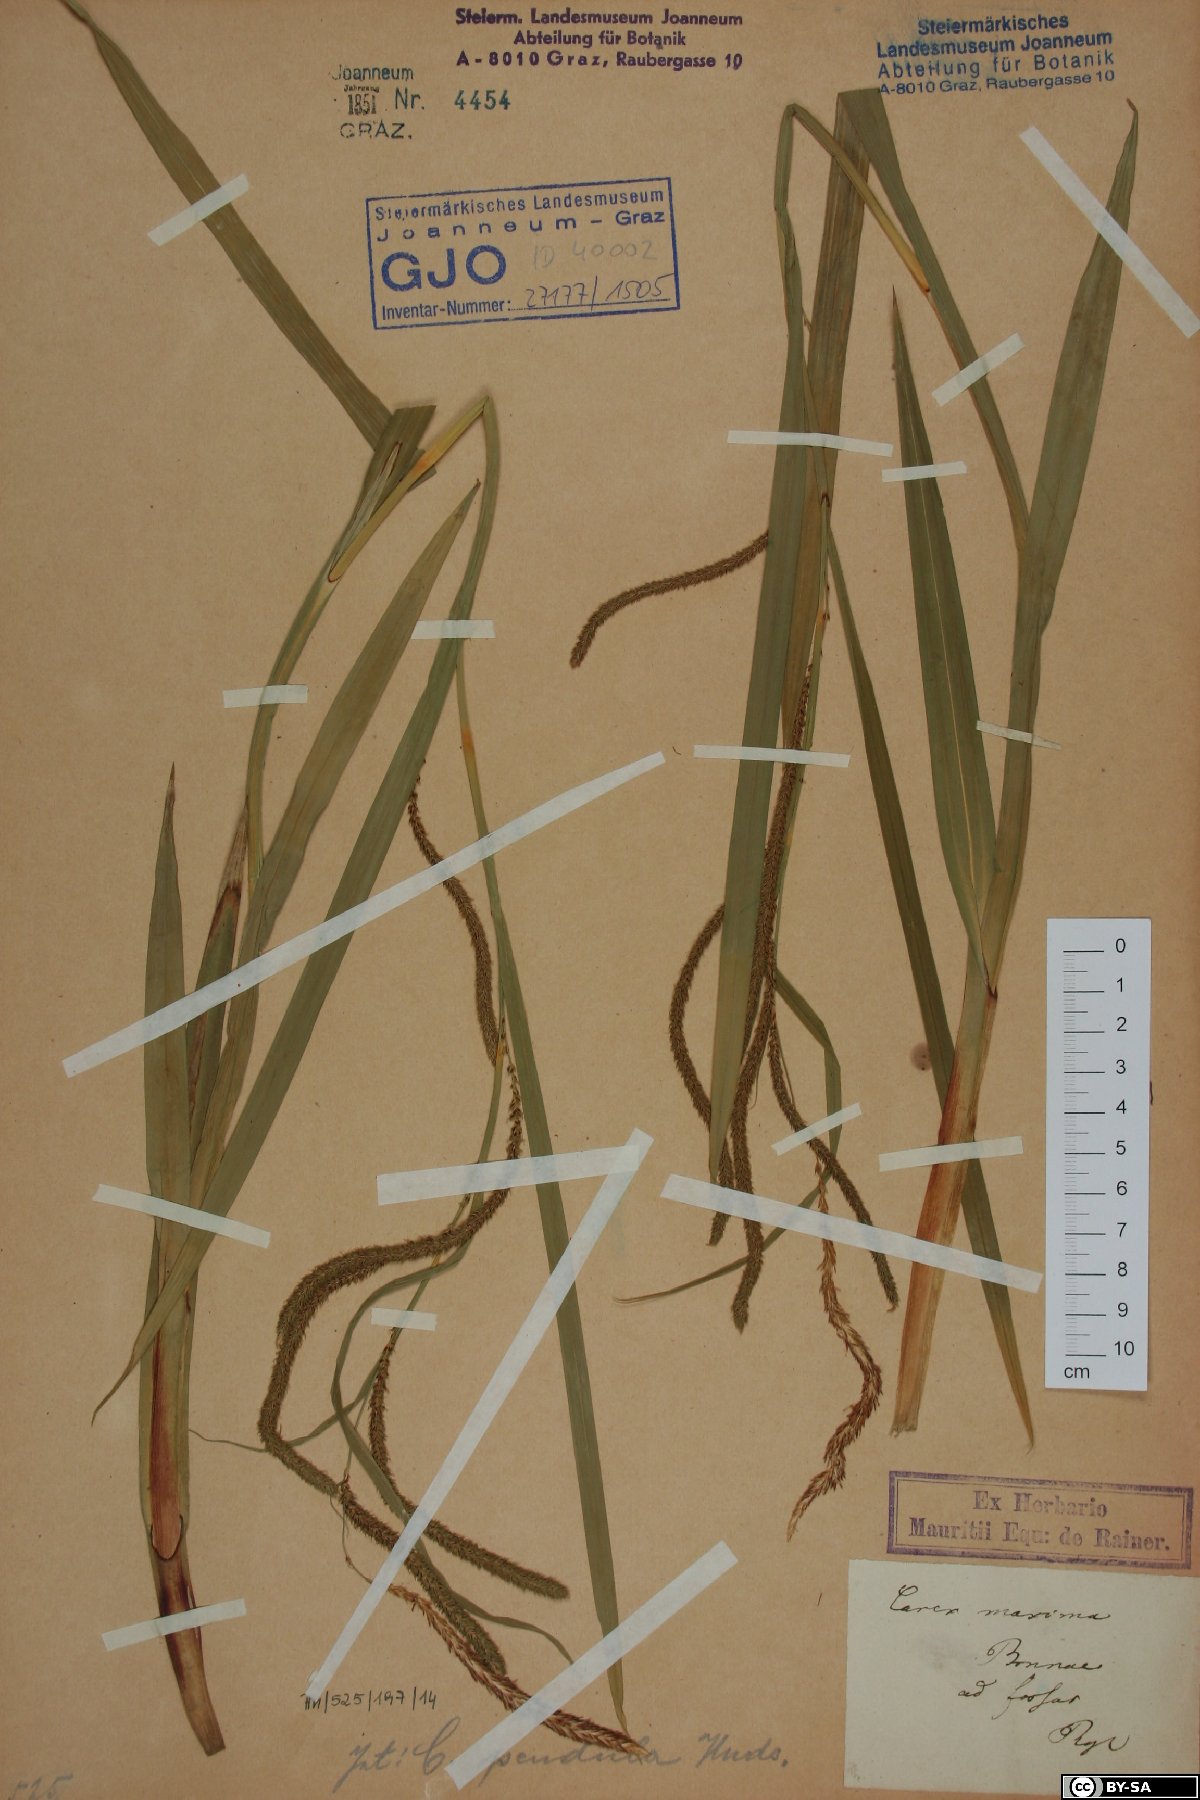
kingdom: Plantae
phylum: Tracheophyta
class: Liliopsida
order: Poales
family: Cyperaceae
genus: Carex
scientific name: Carex pendula
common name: Pendulous sedge
